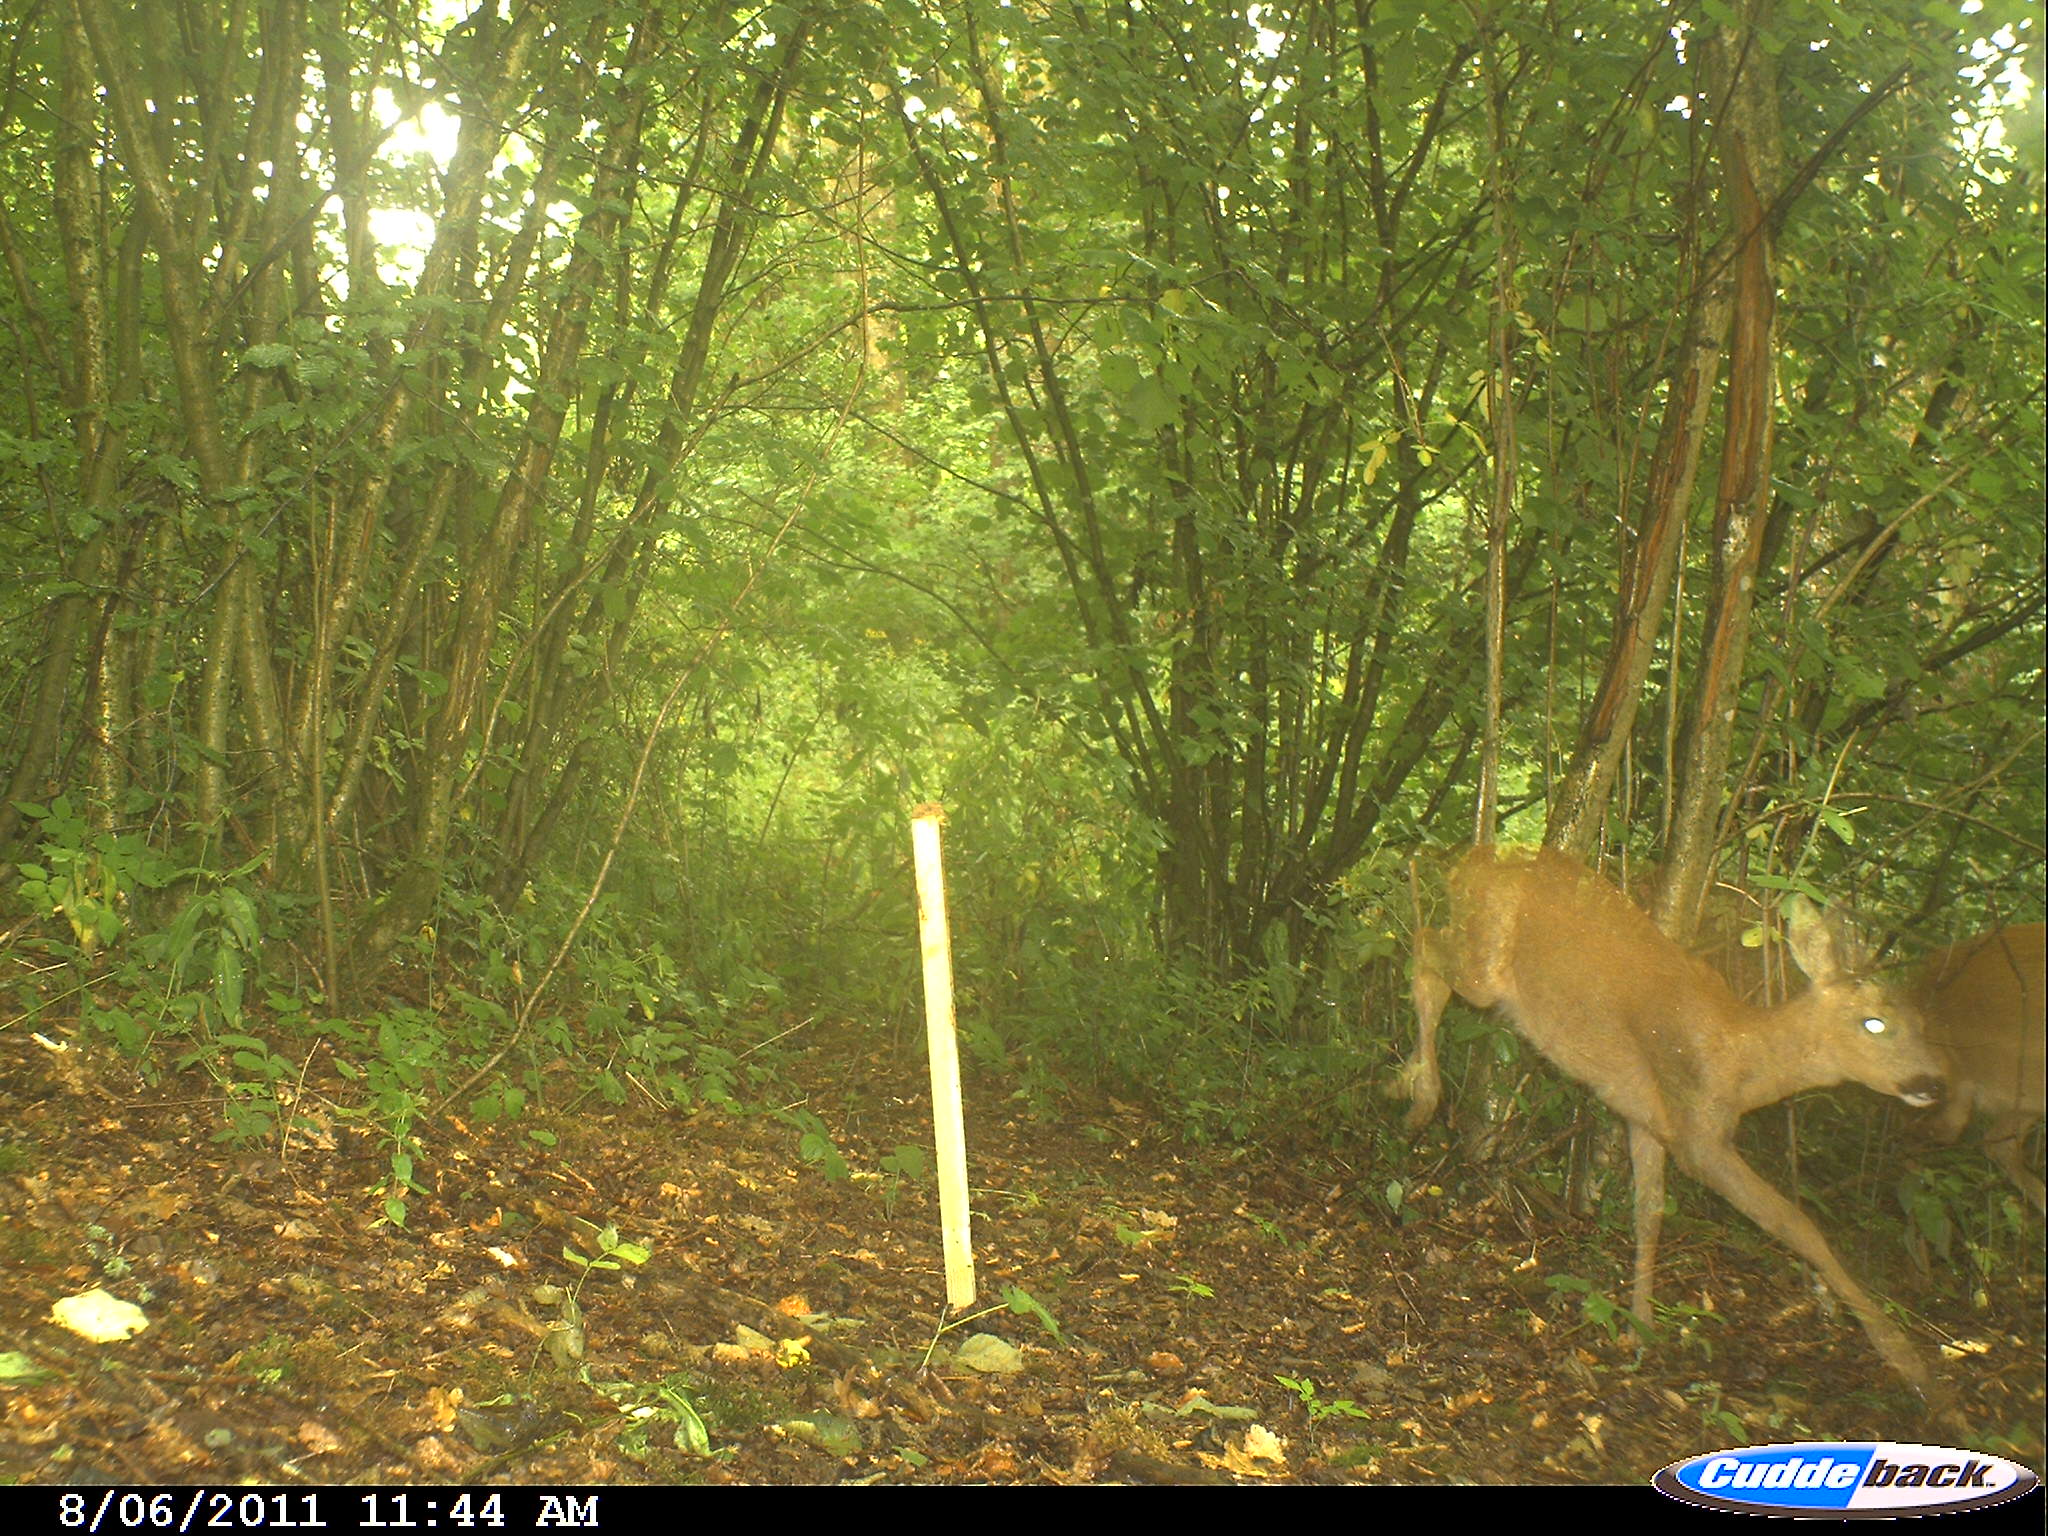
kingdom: Animalia
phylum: Chordata
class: Mammalia
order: Artiodactyla
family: Cervidae
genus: Capreolus
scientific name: Capreolus capreolus
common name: Western roe deer
